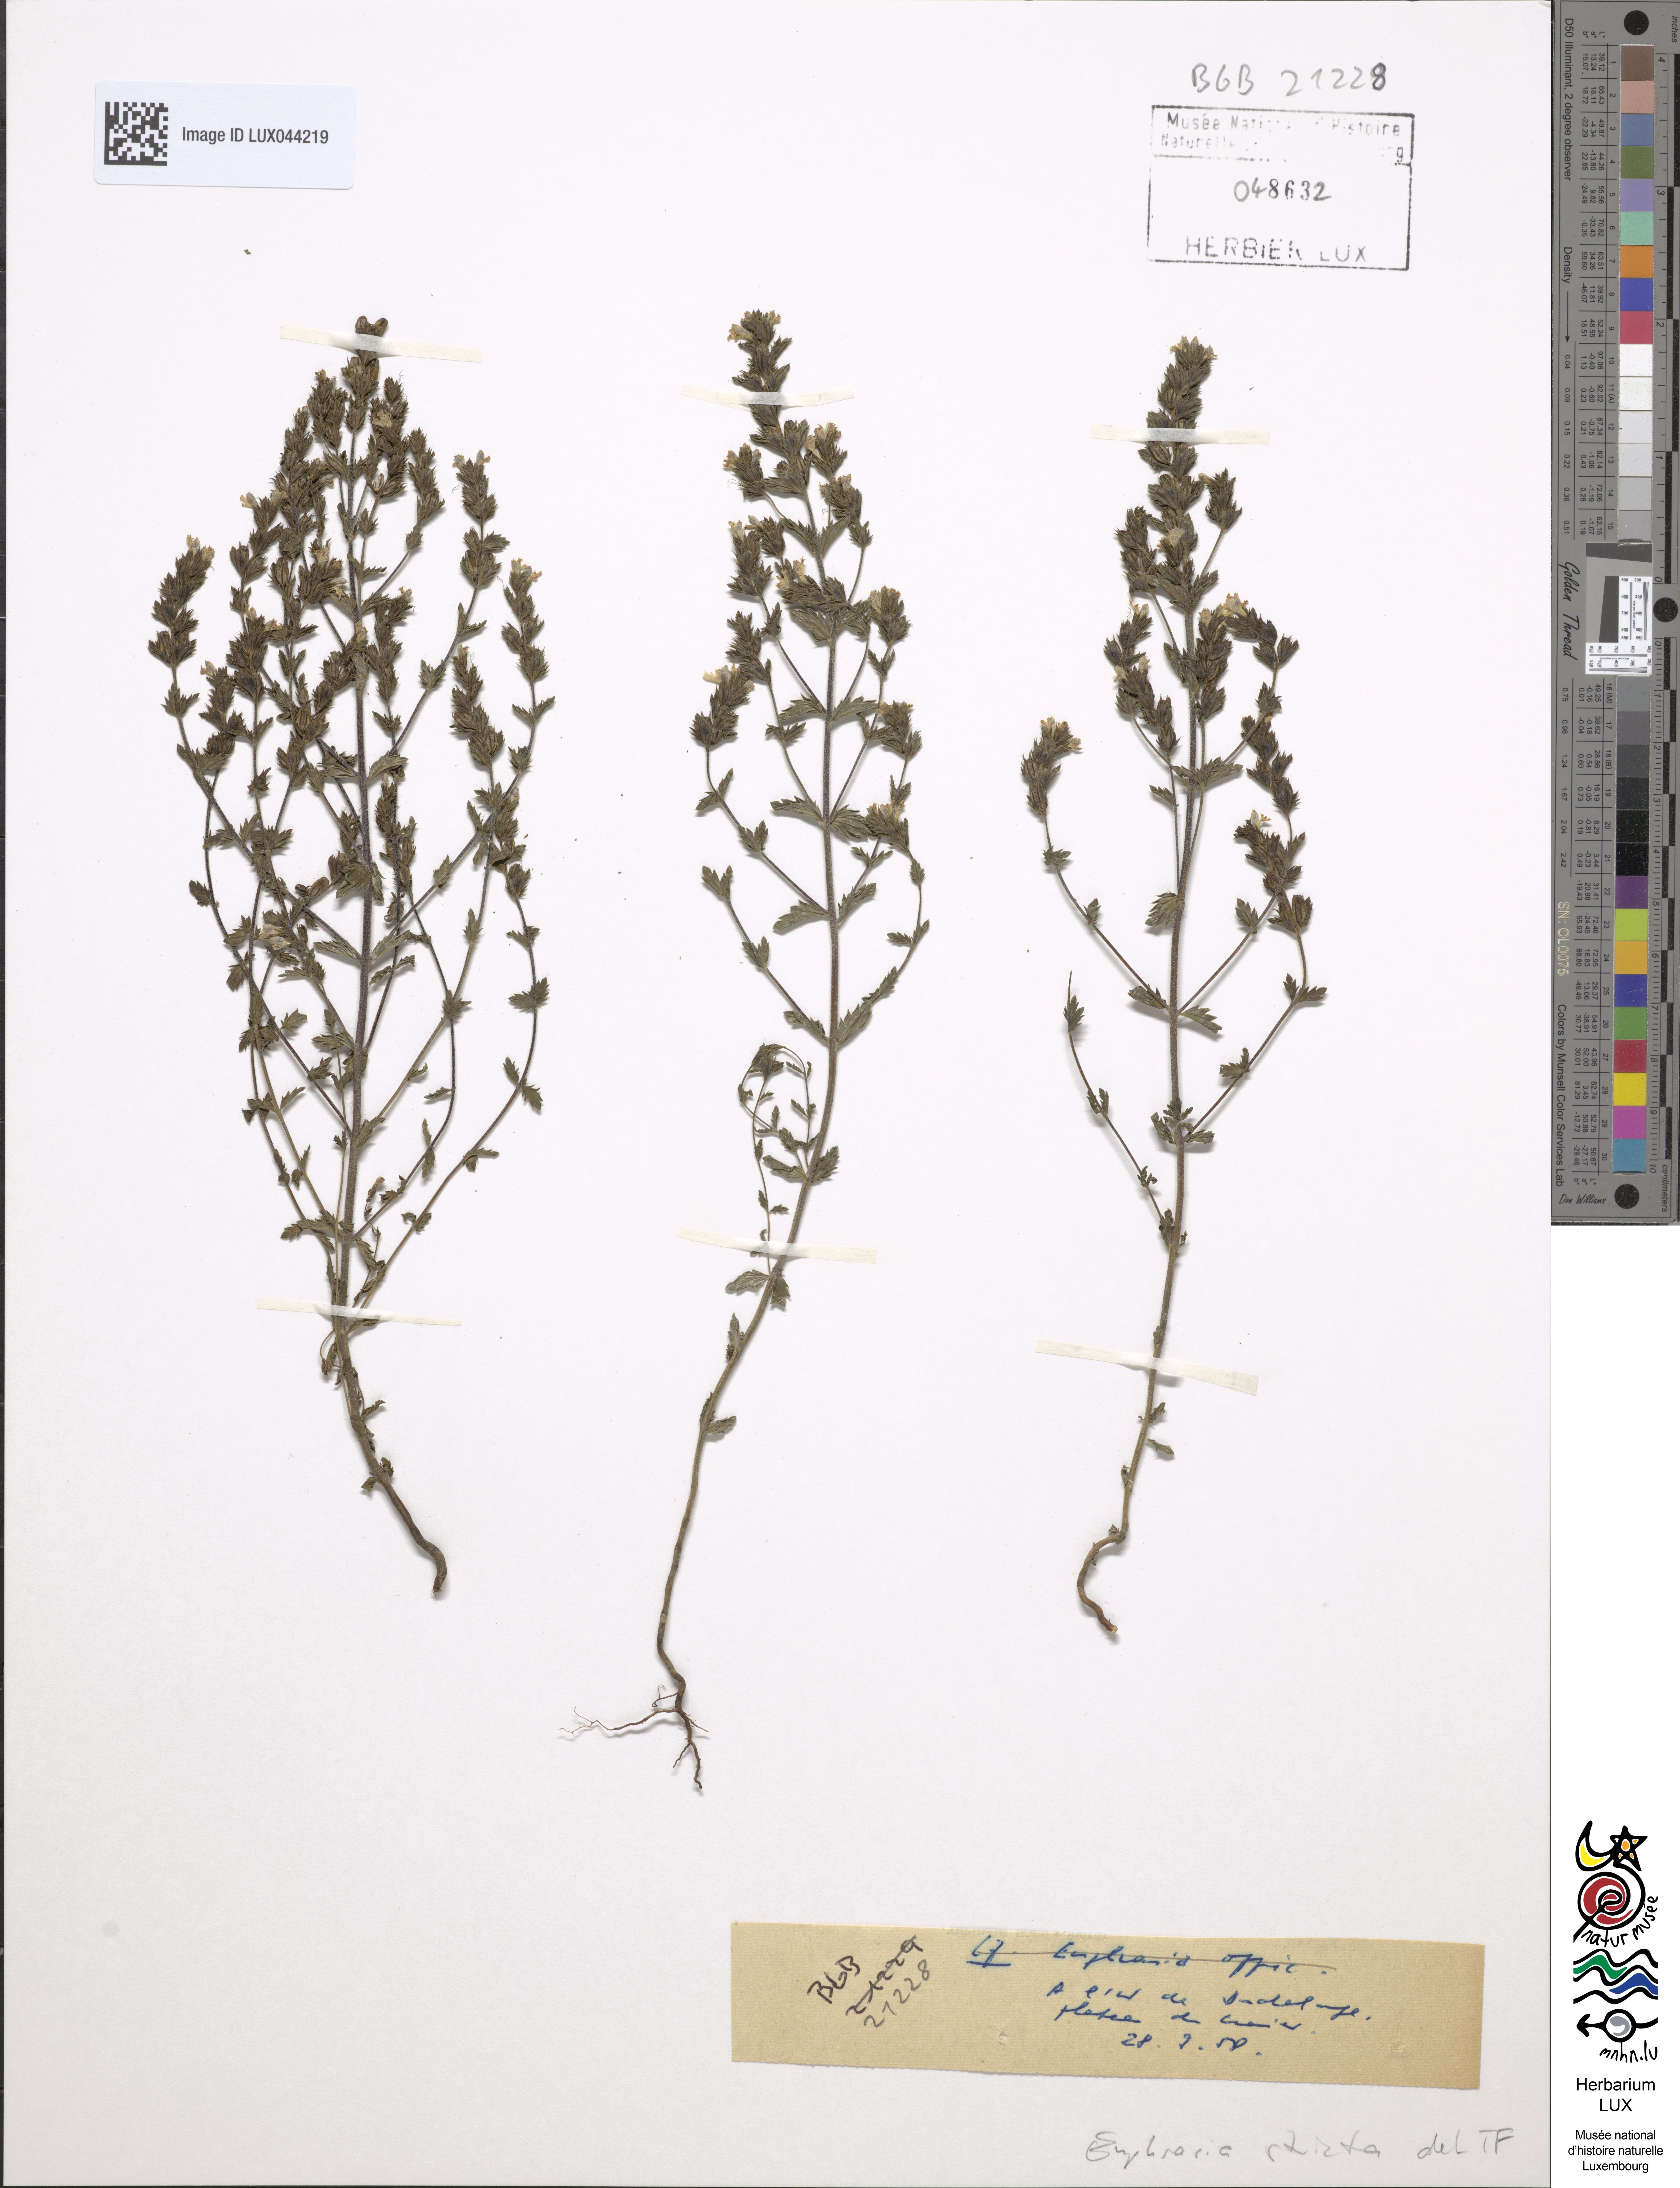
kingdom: Plantae
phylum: Tracheophyta
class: Magnoliopsida
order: Lamiales
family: Orobanchaceae
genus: Euphrasia
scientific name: Euphrasia stricta
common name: Drug eyebright
